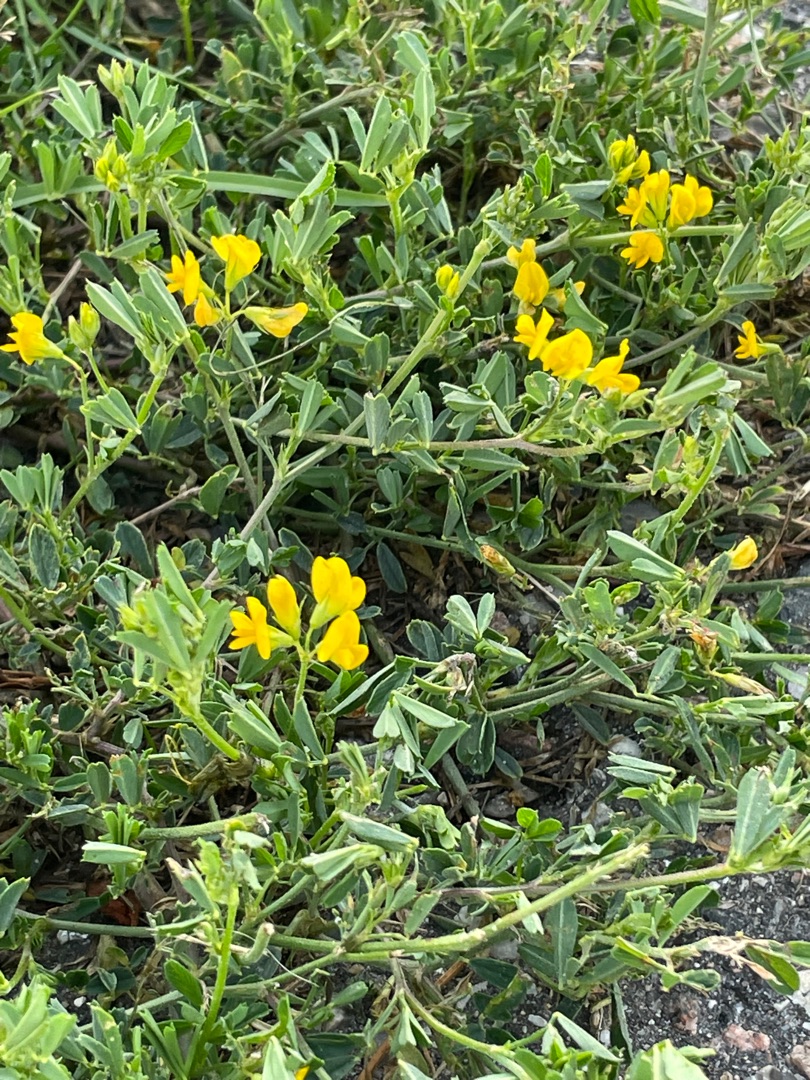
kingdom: Plantae
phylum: Tracheophyta
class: Magnoliopsida
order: Fabales
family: Fabaceae
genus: Medicago
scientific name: Medicago falcata
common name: Segl-sneglebælg
